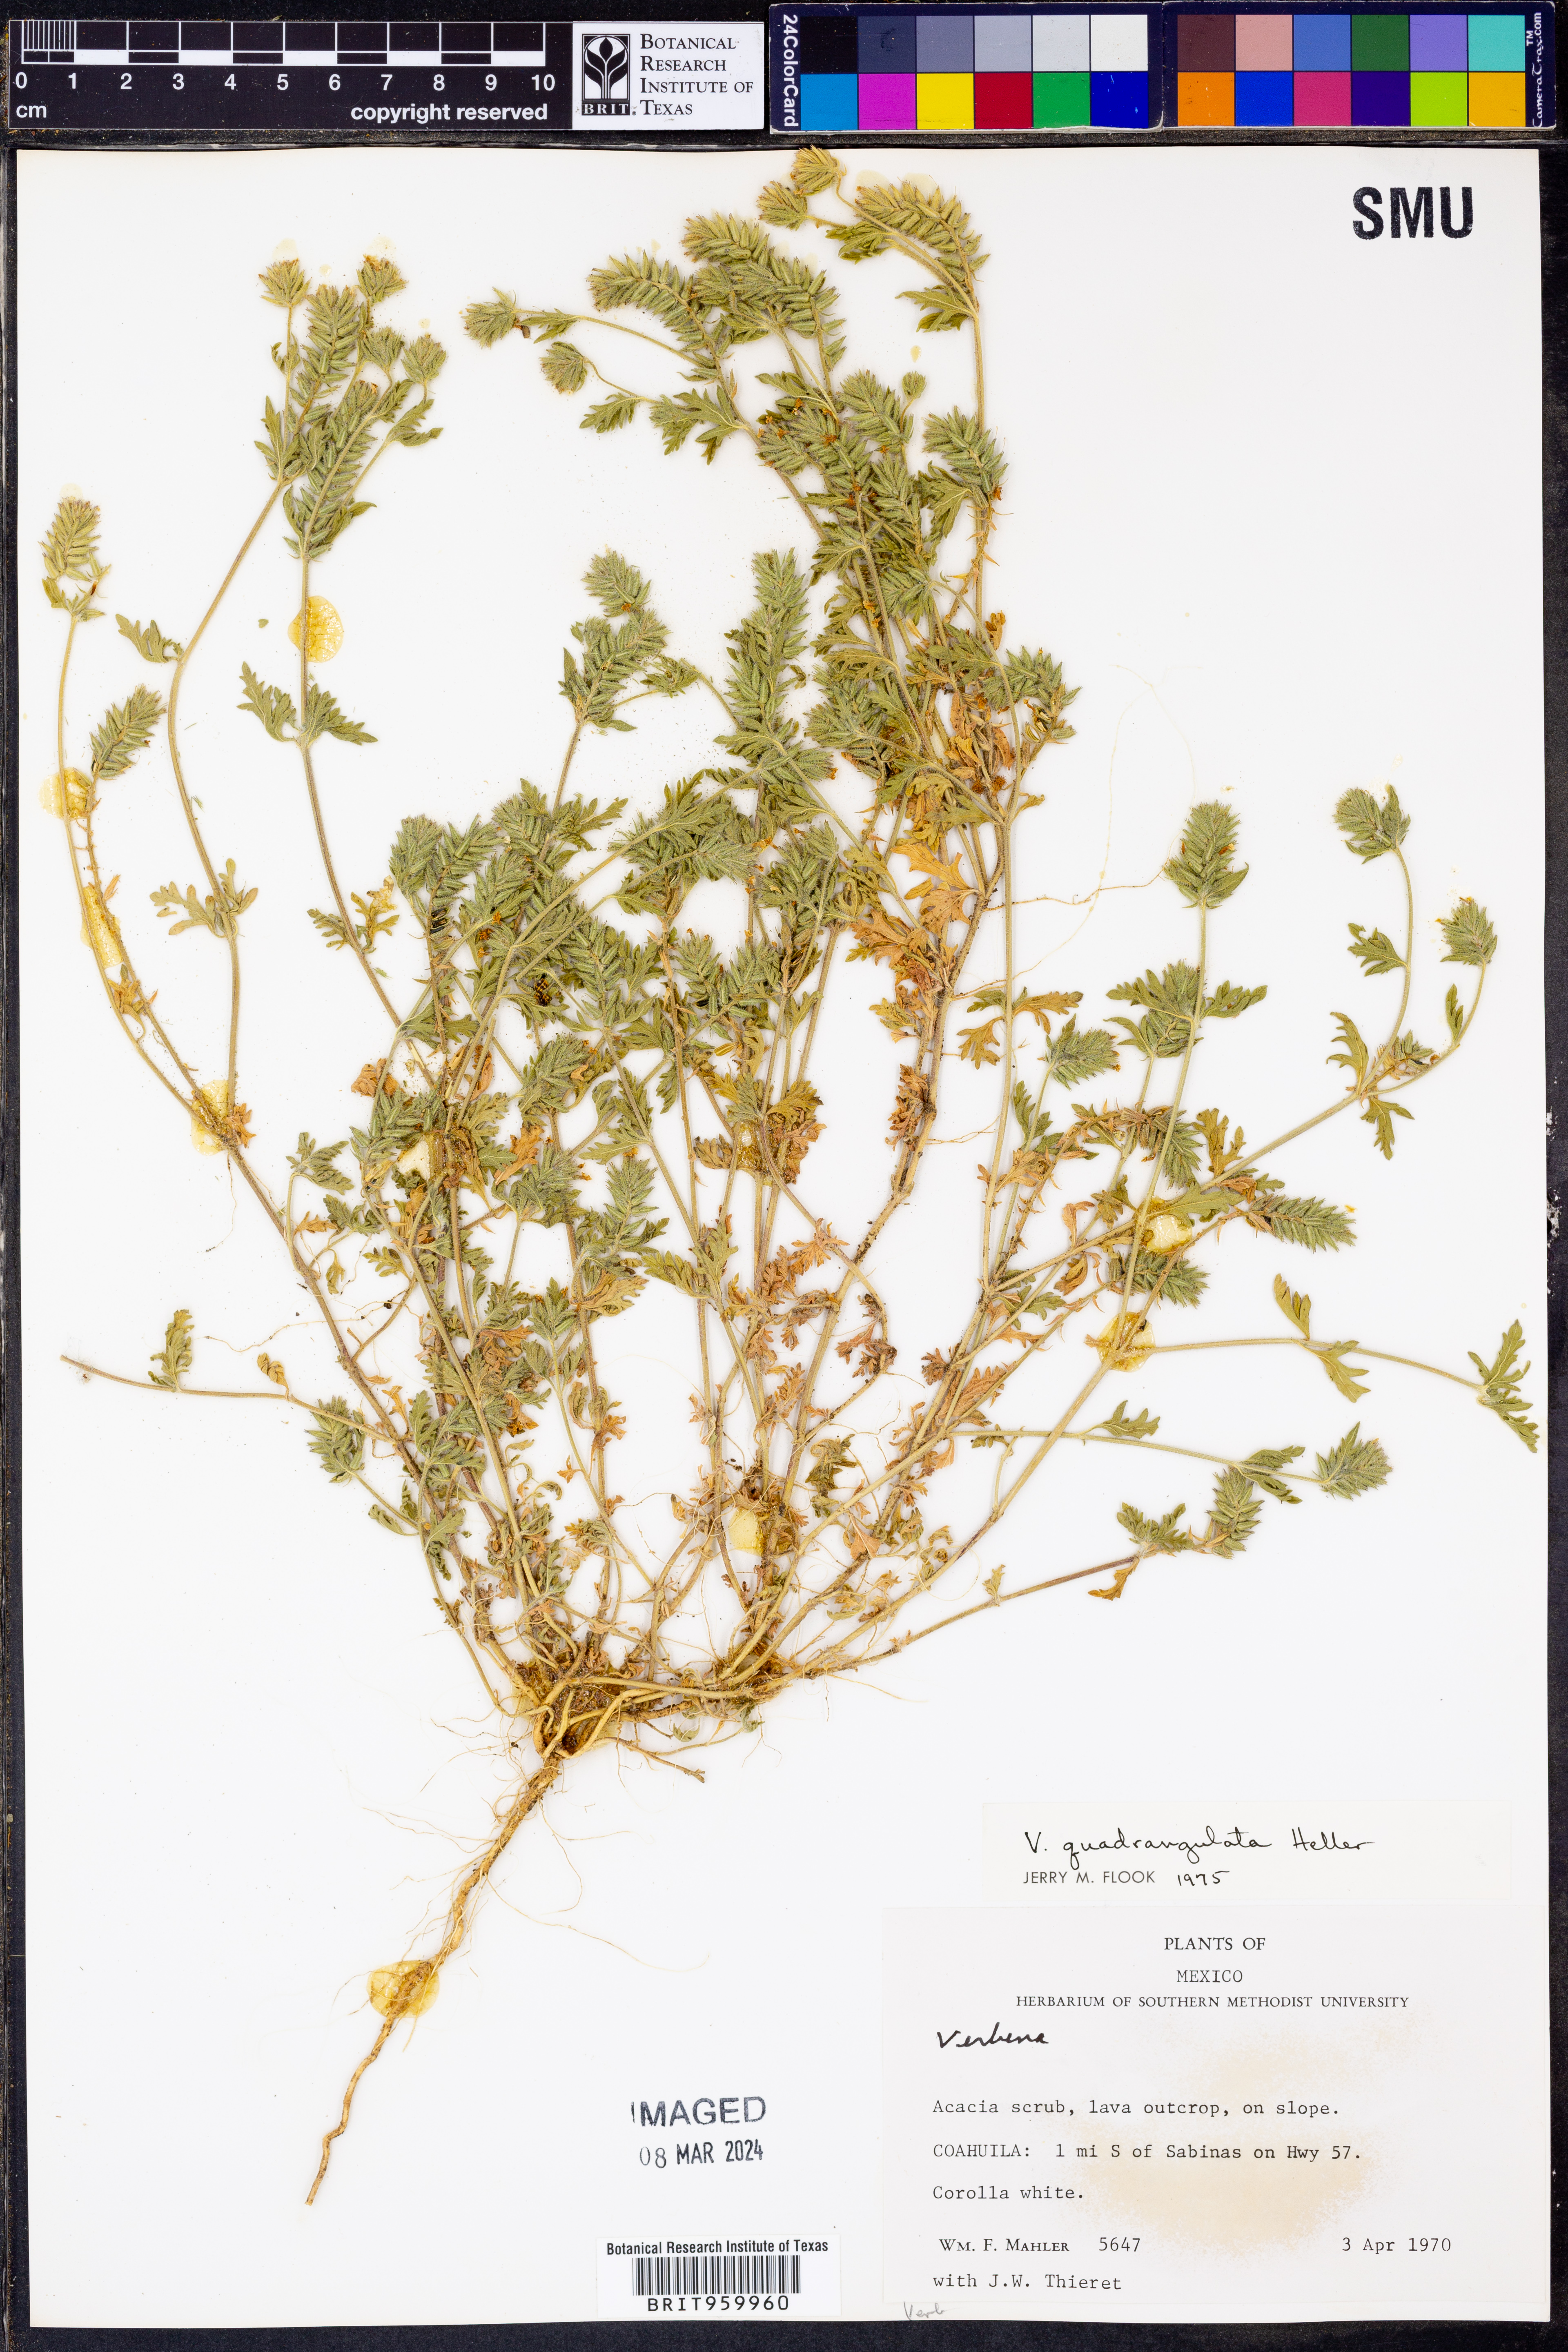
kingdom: Plantae
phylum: Tracheophyta
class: Magnoliopsida
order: Lamiales
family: Verbenaceae
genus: Verbena
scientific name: Verbena quadrangulata
